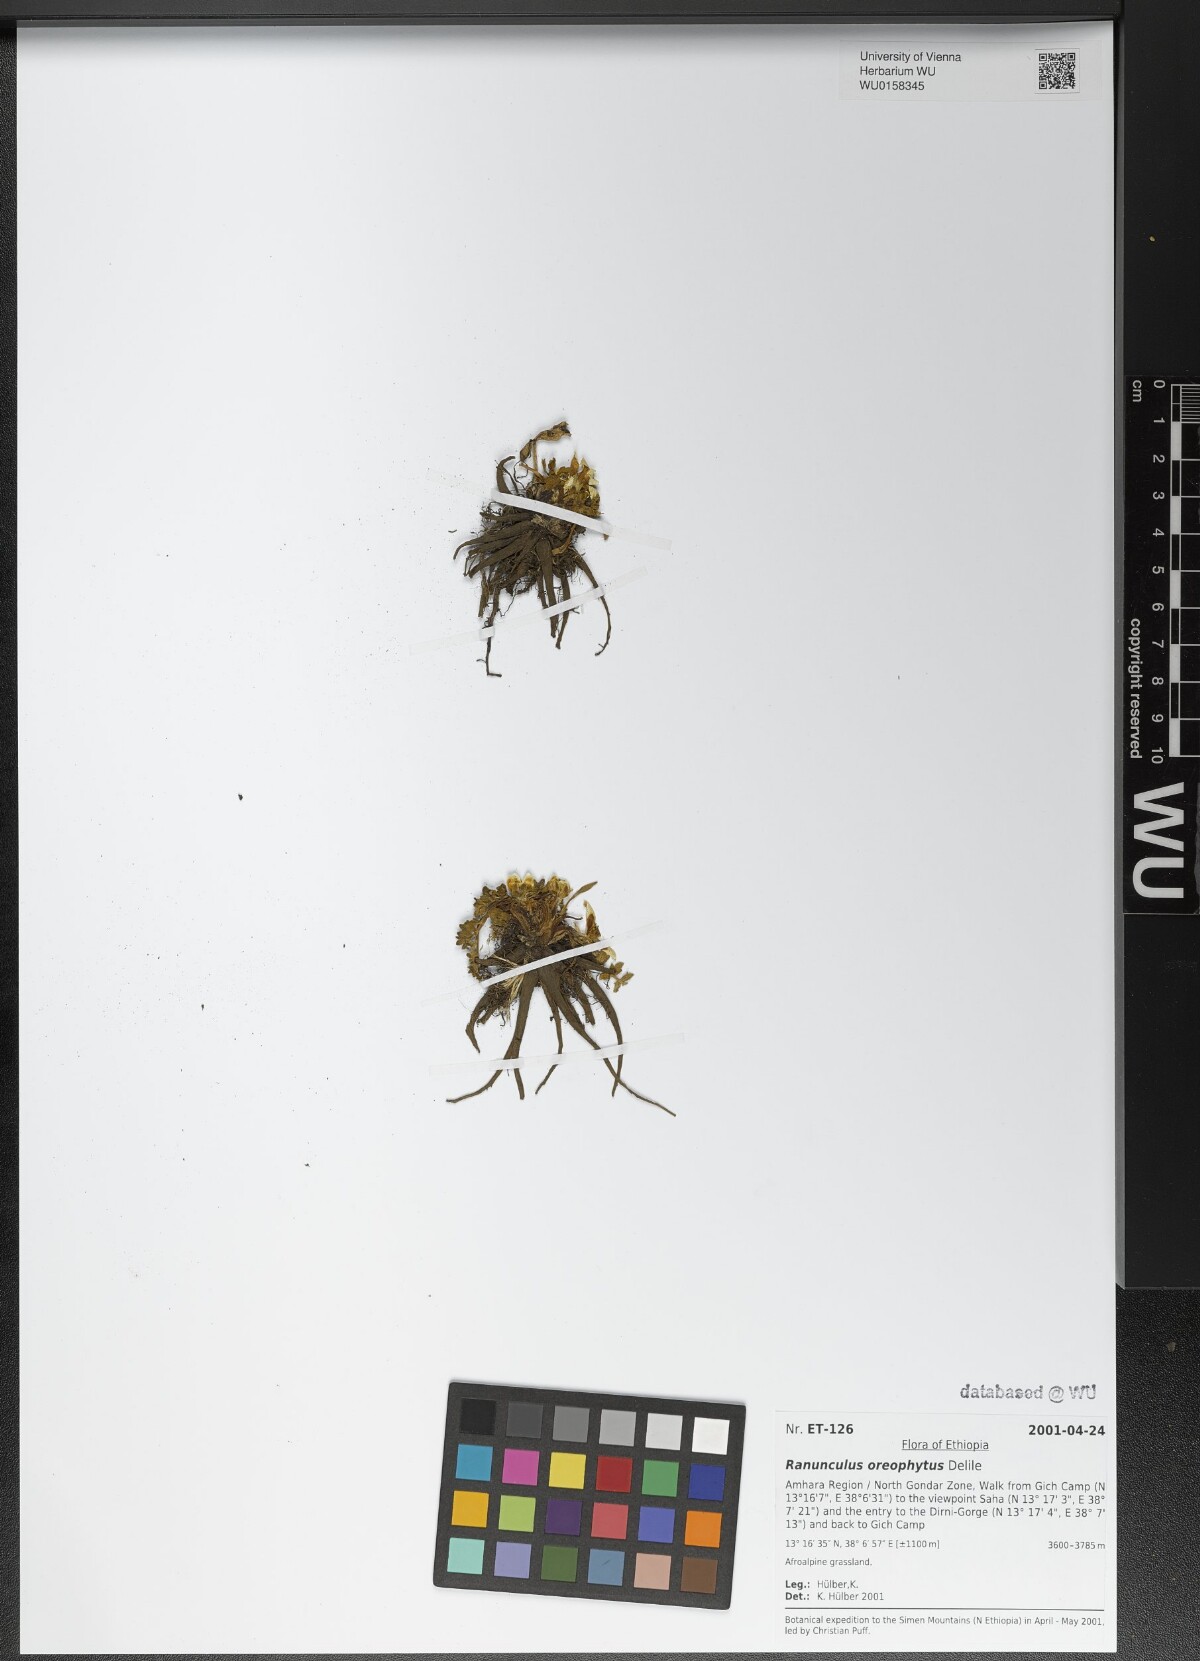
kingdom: Plantae
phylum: Tracheophyta
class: Magnoliopsida
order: Ranunculales
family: Ranunculaceae
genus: Ranunculus
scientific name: Ranunculus oreophytus
